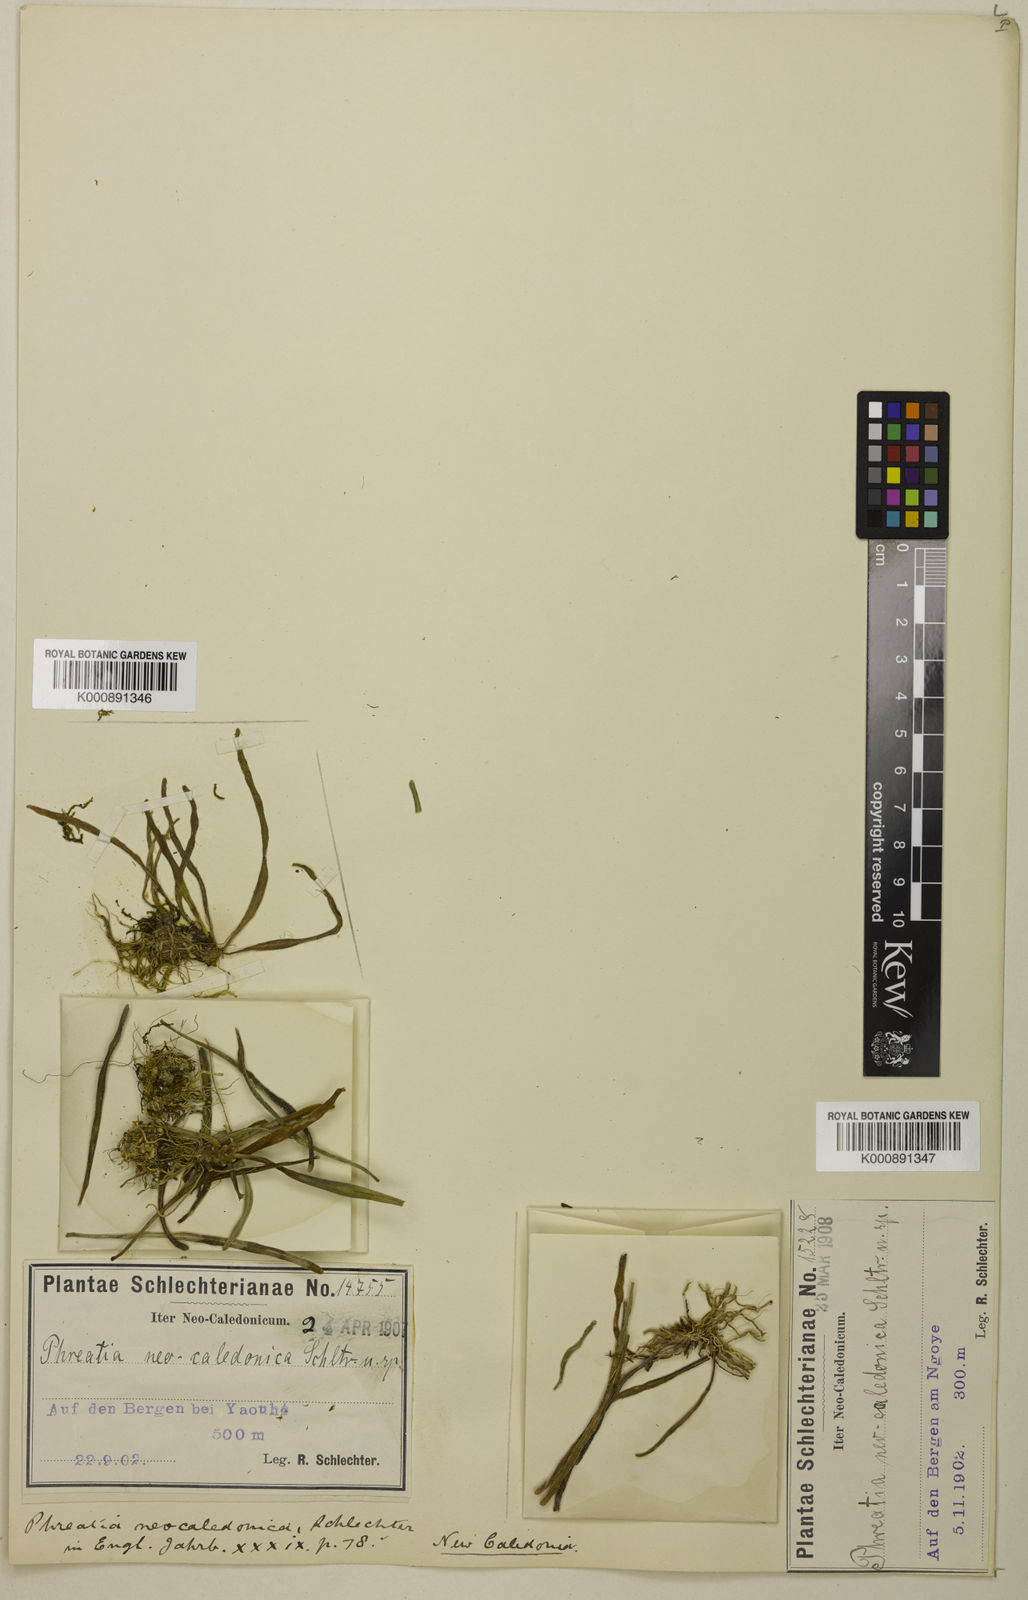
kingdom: Plantae
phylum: Tracheophyta
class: Liliopsida
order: Asparagales
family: Orchidaceae
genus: Phreatia
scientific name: Phreatia matthewsii
